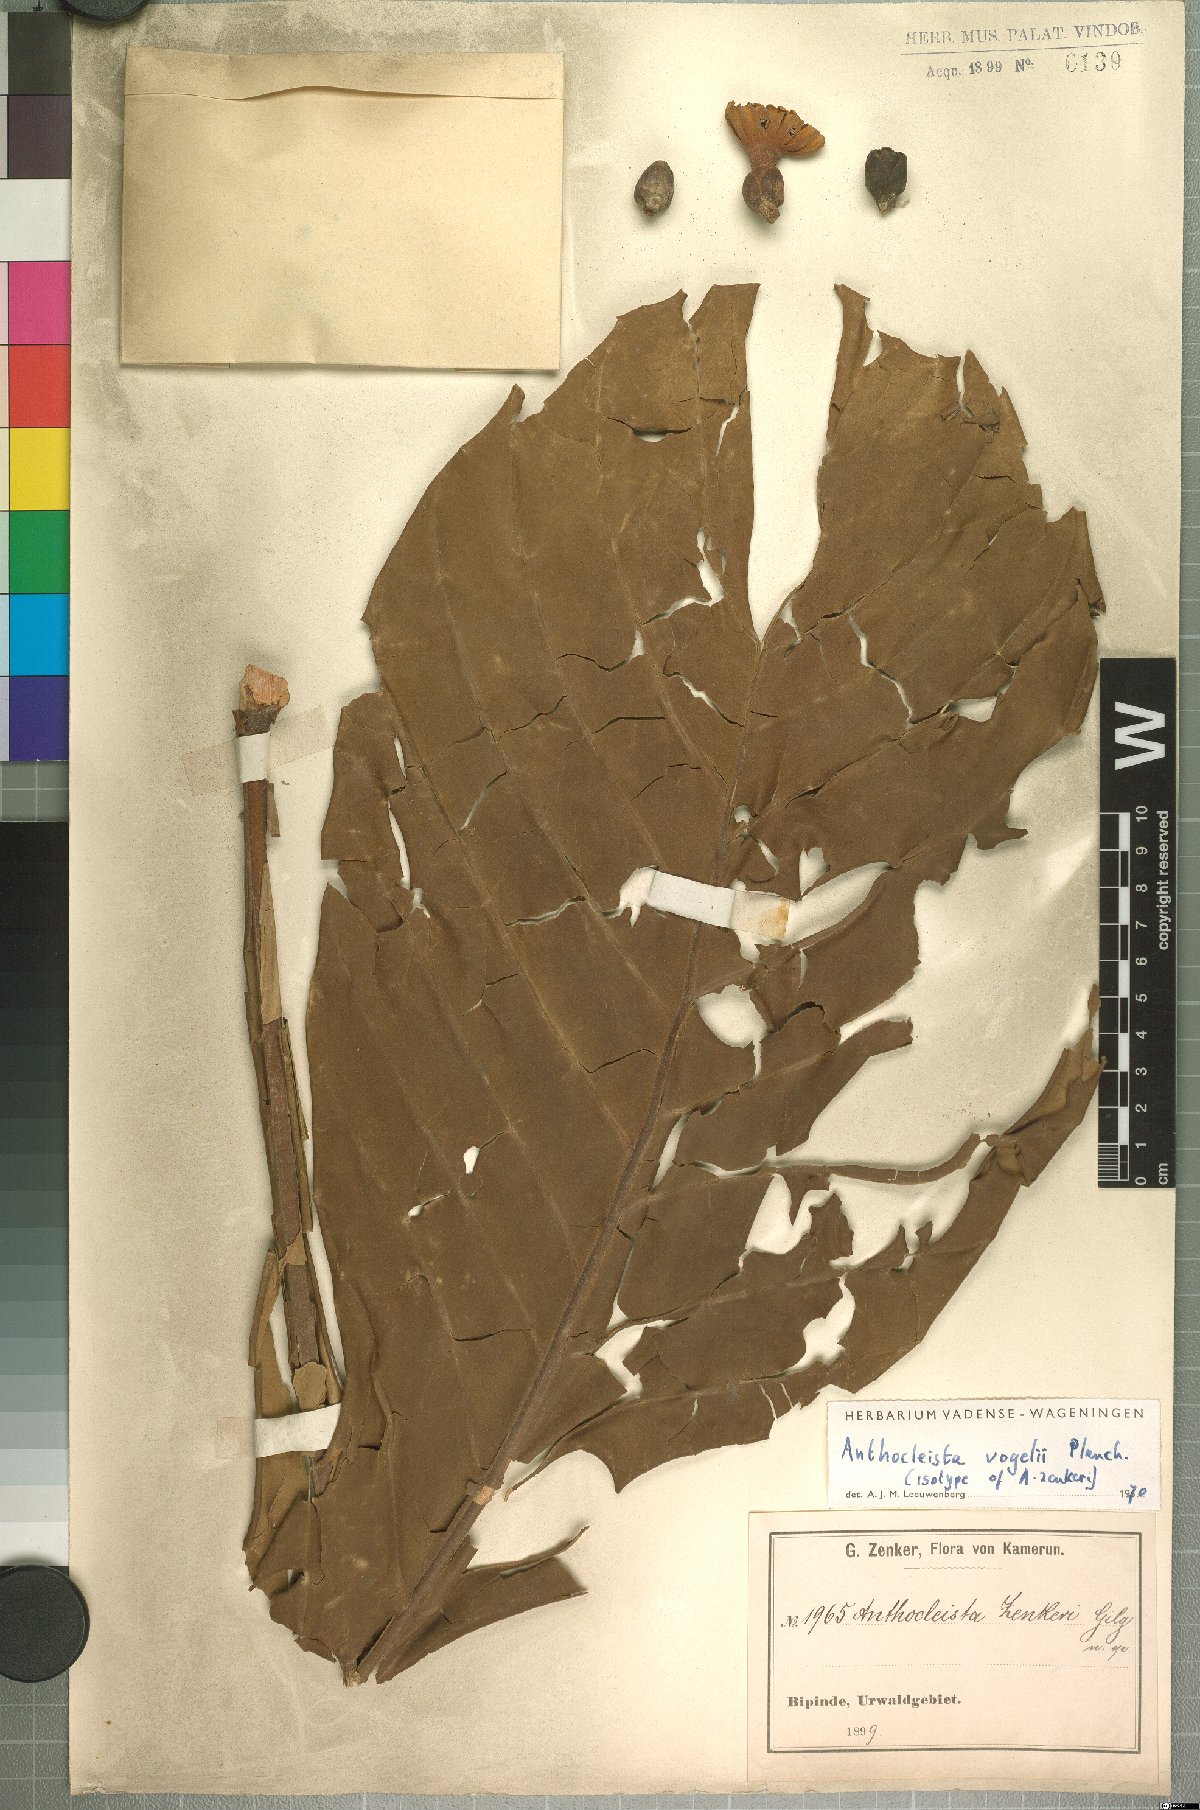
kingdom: Plantae
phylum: Tracheophyta
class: Magnoliopsida
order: Gentianales
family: Gentianaceae
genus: Anthocleista
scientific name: Anthocleista vogelii
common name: Cabbage tree
